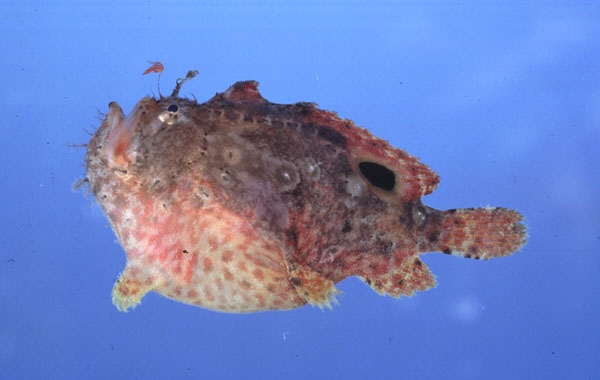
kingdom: Animalia
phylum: Chordata
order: Lophiiformes
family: Antennariidae
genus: Antennatus
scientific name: Antennatus nummifer
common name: Spotfin frogfish
